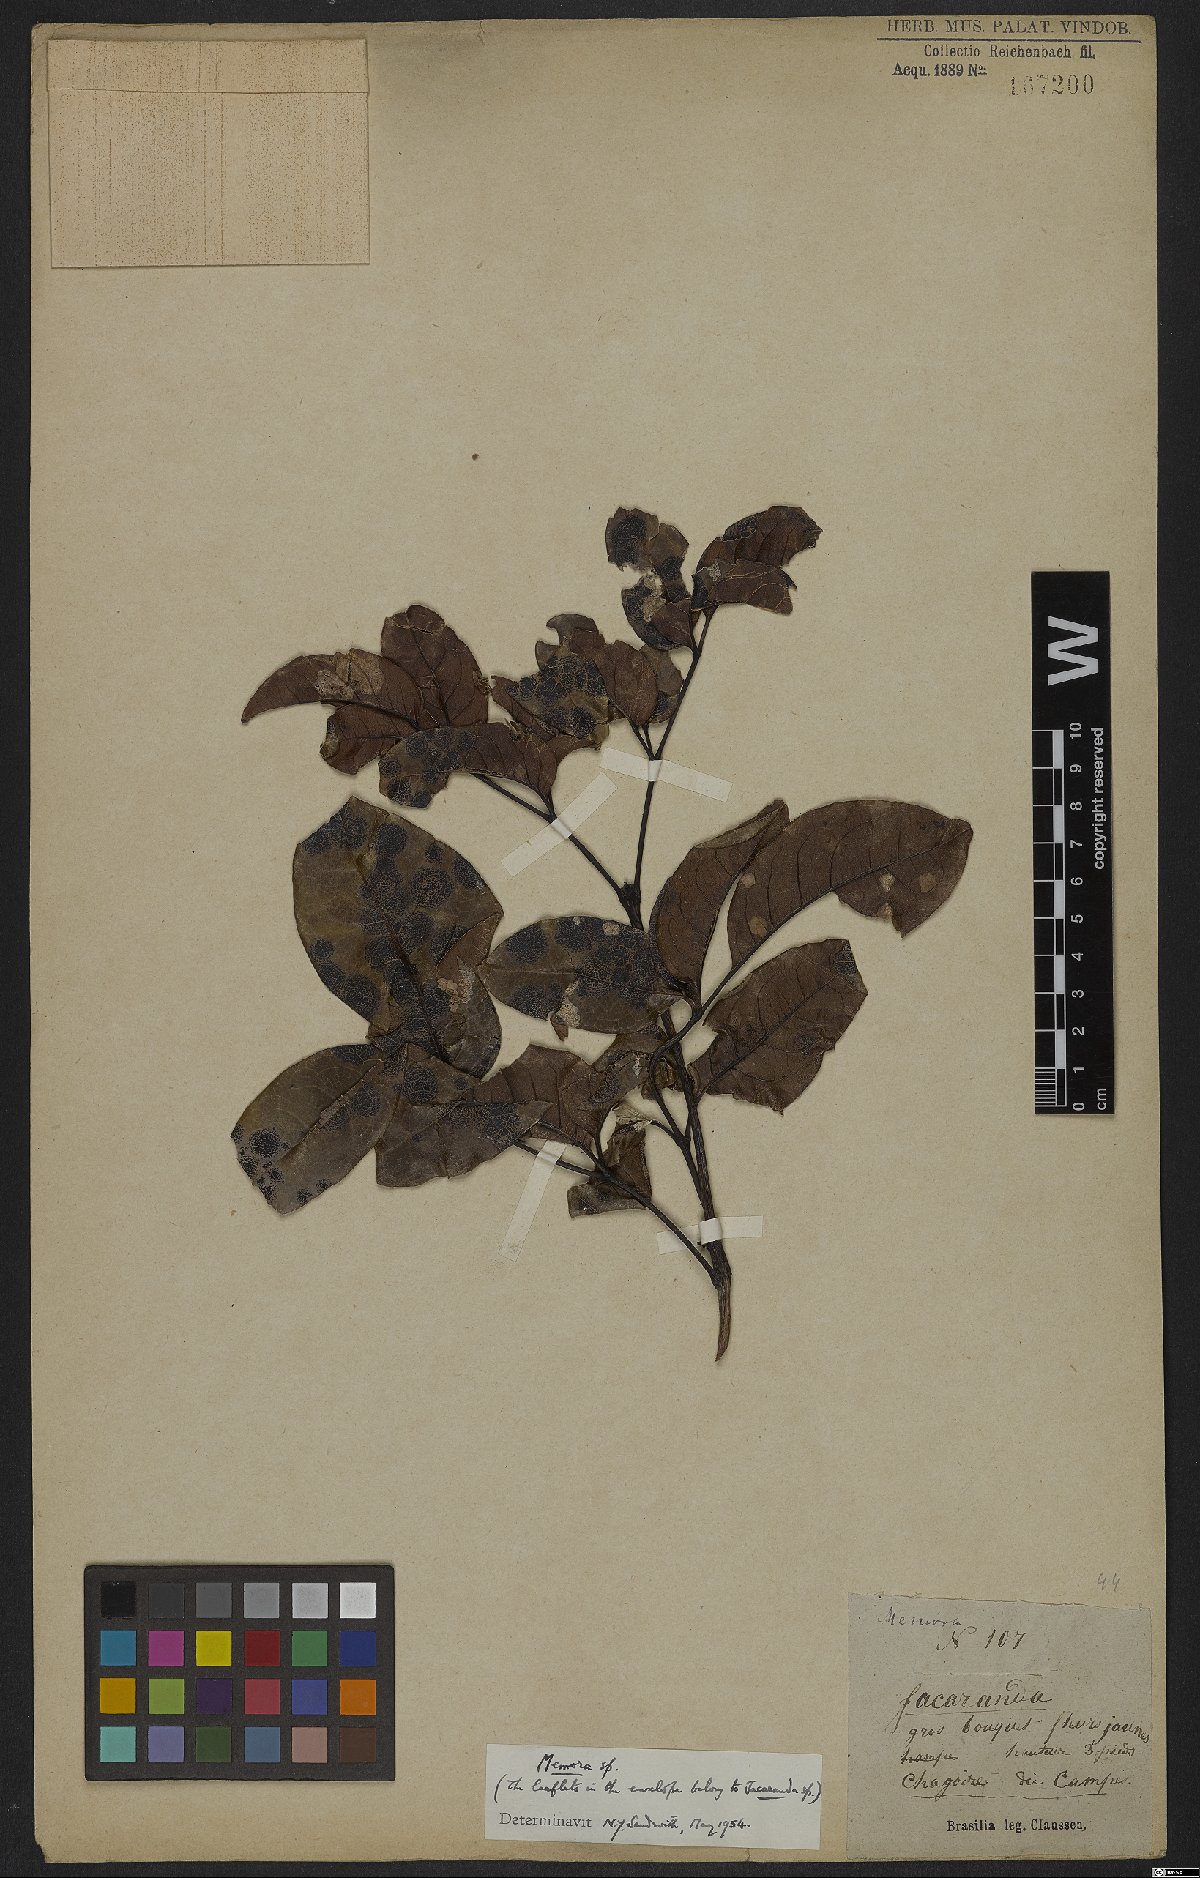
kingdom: Plantae
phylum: Tracheophyta
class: Magnoliopsida
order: Lamiales
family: Bignoniaceae
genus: Adenocalymma
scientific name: Adenocalymma
